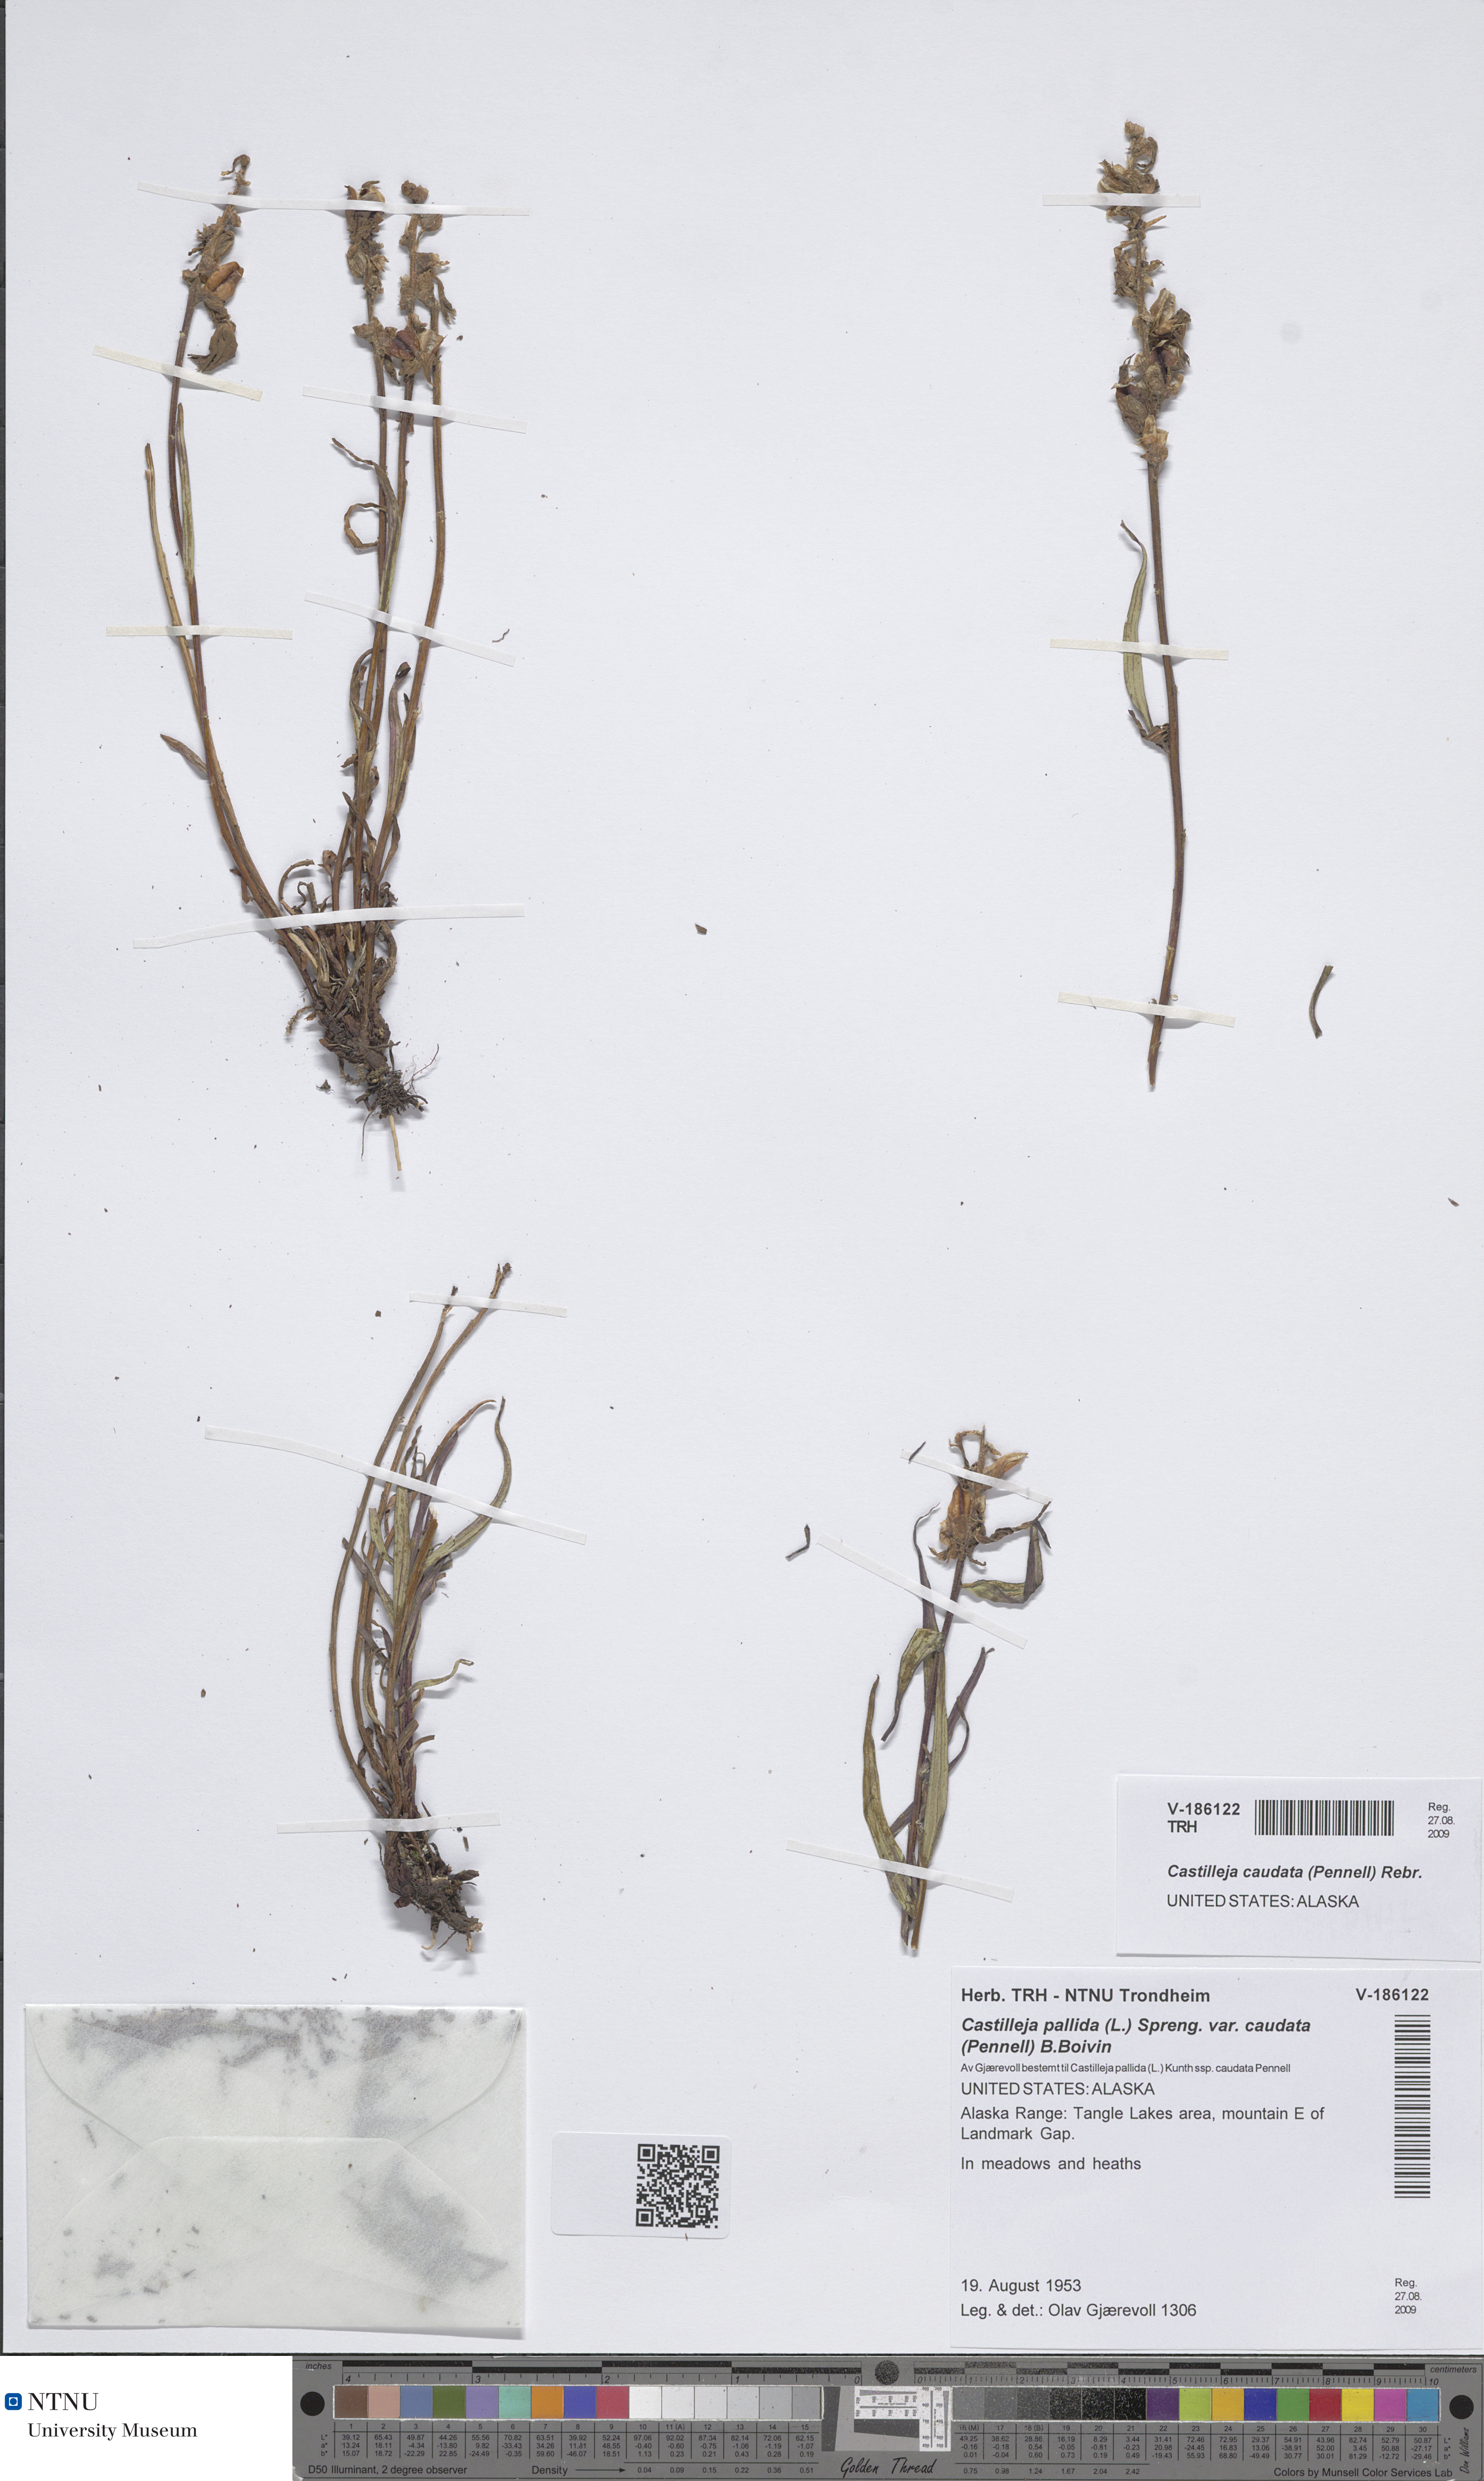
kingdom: Plantae
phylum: Tracheophyta
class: Magnoliopsida
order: Lamiales
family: Orobanchaceae
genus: Castilleja
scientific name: Castilleja pallida
